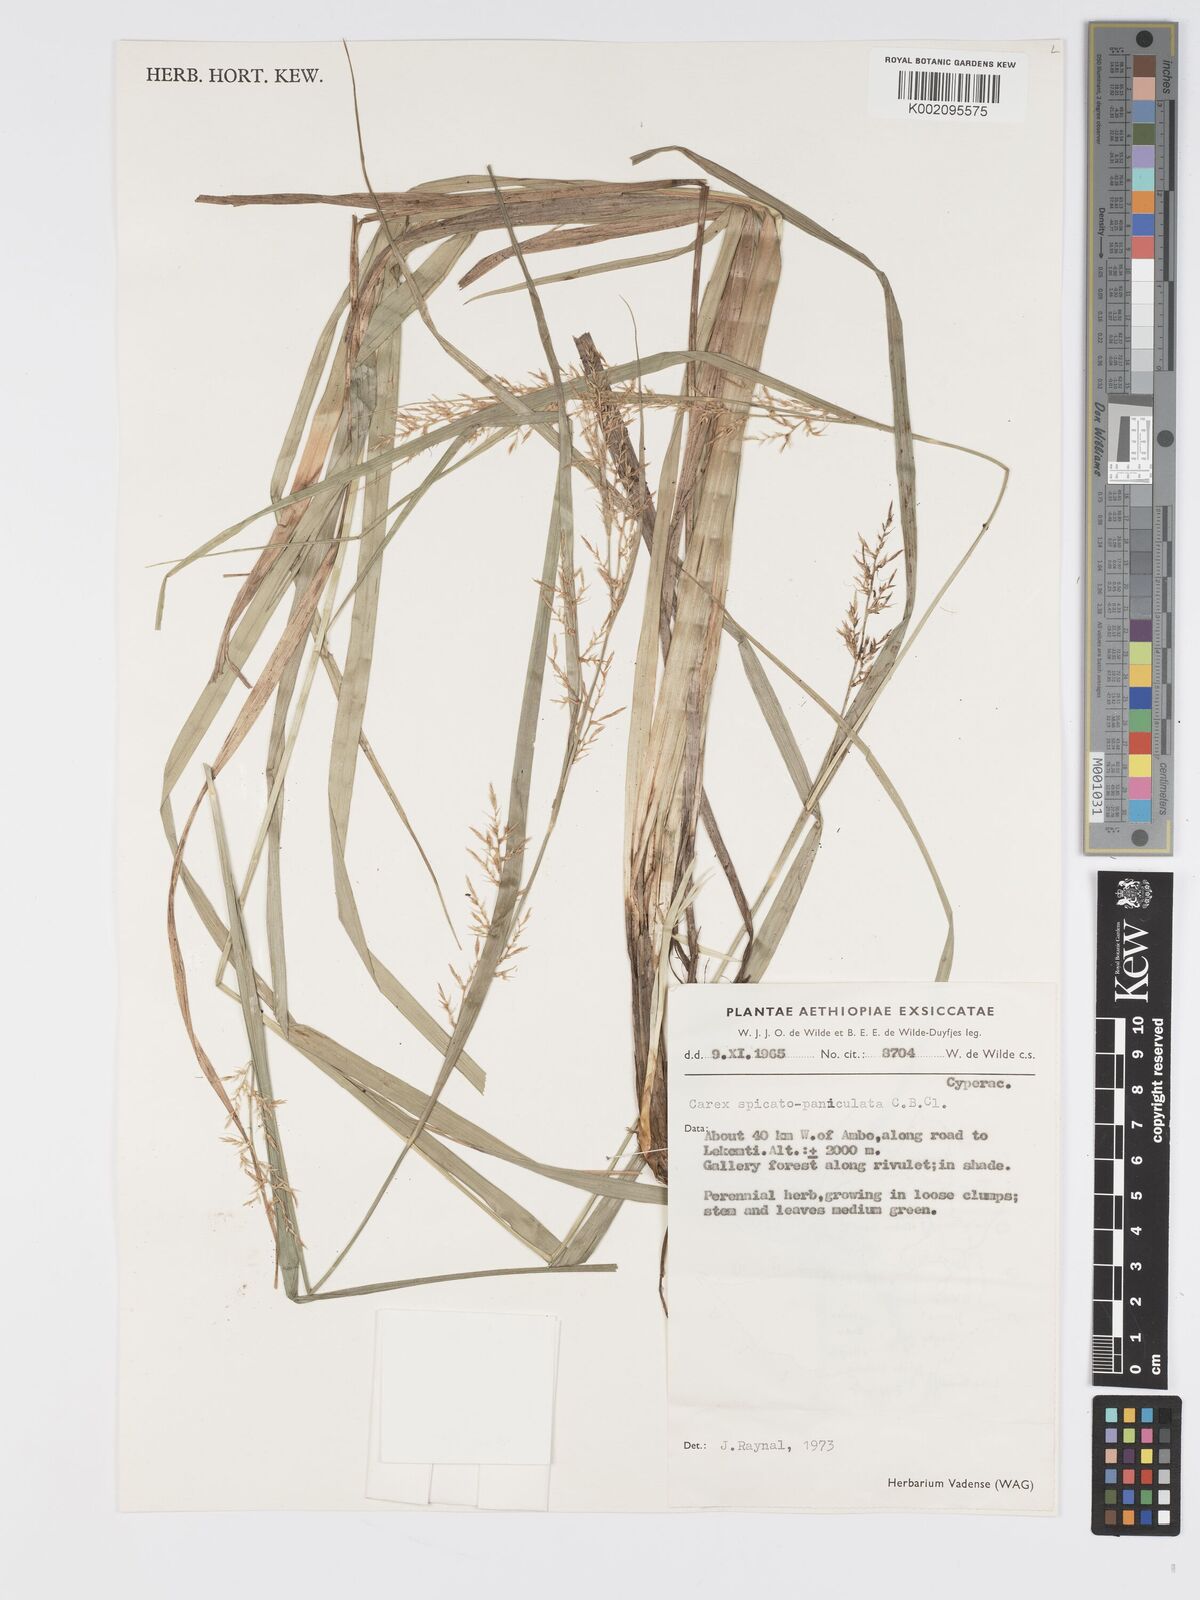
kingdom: Plantae
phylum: Tracheophyta
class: Liliopsida
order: Poales
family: Cyperaceae
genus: Carex
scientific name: Carex chlorosaccus
